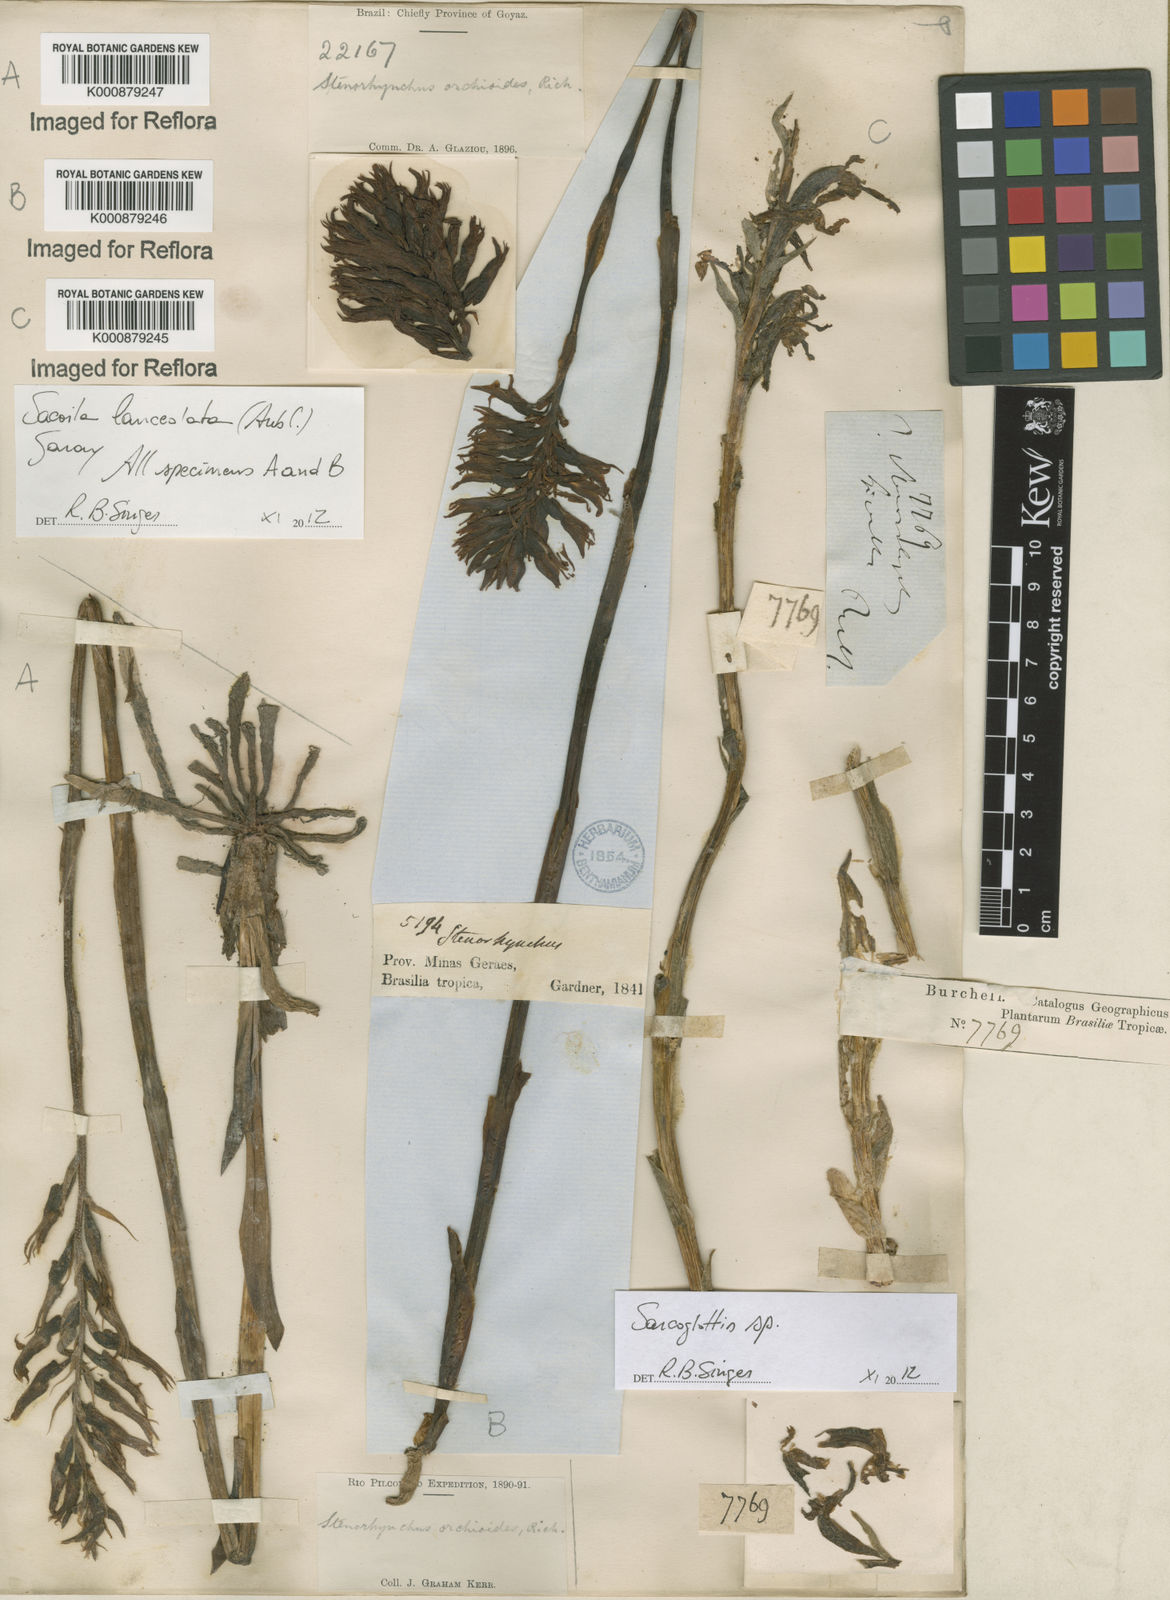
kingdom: Plantae
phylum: Tracheophyta
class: Liliopsida
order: Asparagales
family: Orchidaceae
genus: Sacoila
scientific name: Sacoila lanceolata
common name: Leafless beaked ladiestresses
